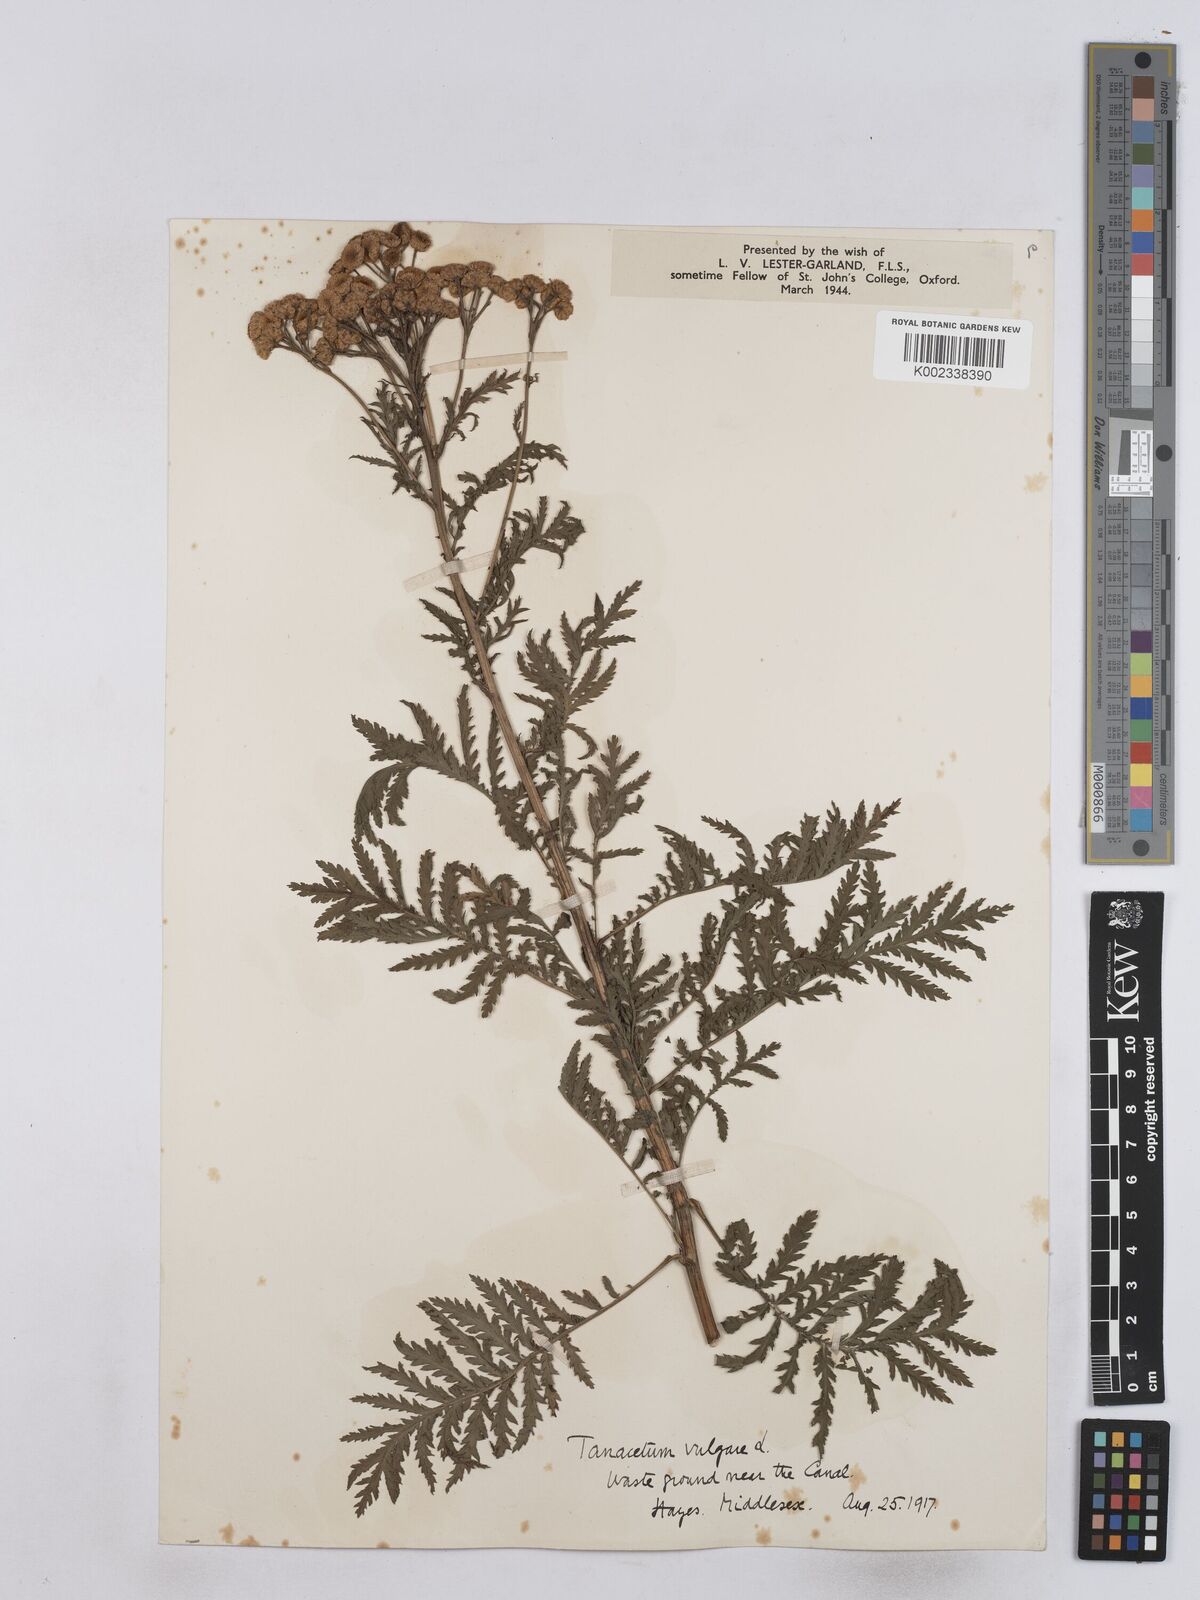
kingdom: Plantae
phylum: Tracheophyta
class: Magnoliopsida
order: Asterales
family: Asteraceae
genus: Tanacetum
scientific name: Tanacetum vulgare
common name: Common tansy
